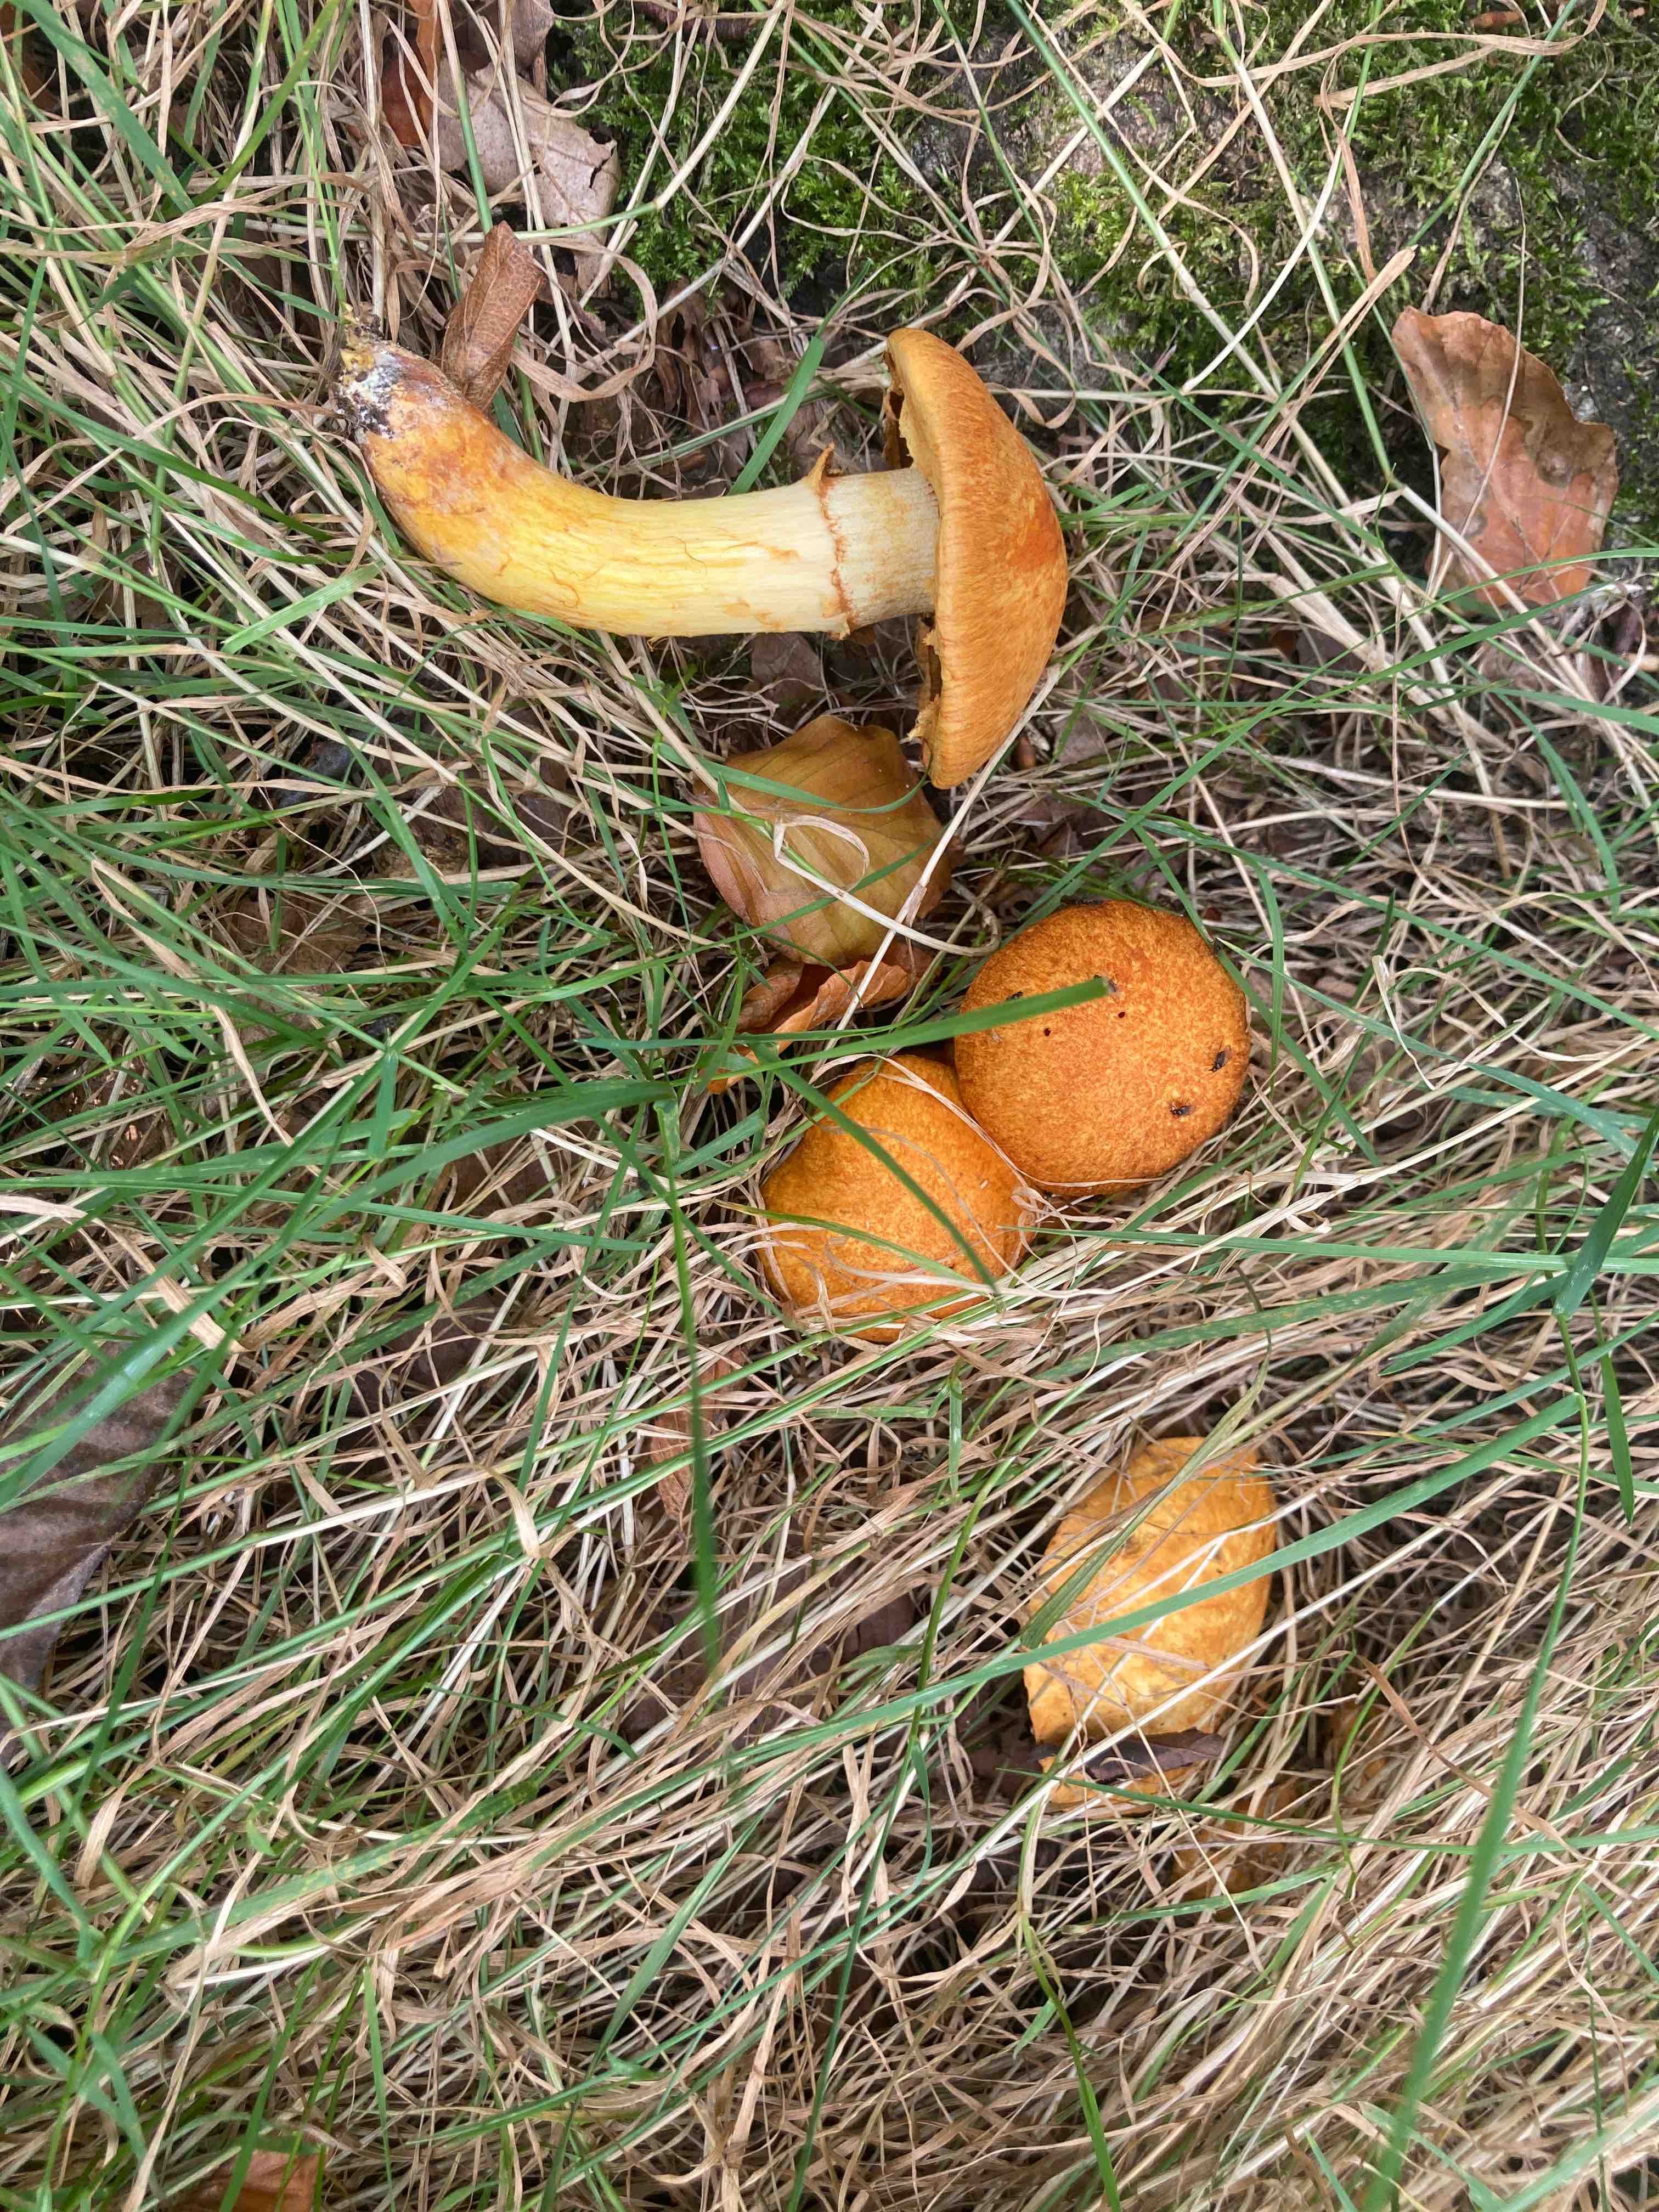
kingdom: Fungi
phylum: Basidiomycota
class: Agaricomycetes
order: Agaricales
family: Hymenogastraceae
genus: Gymnopilus
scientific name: Gymnopilus spectabilis
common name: fibret flammehat
